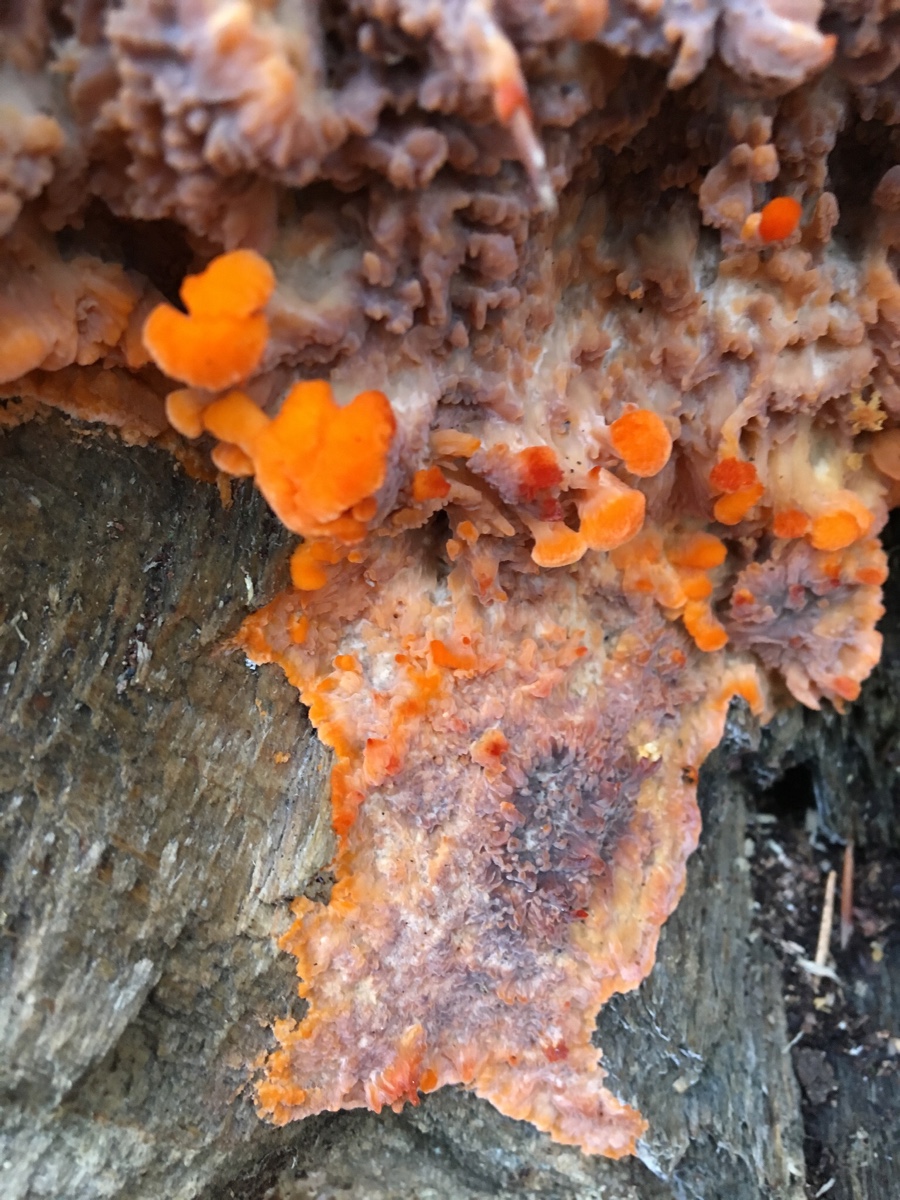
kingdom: Fungi
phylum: Basidiomycota
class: Agaricomycetes
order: Polyporales
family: Meruliaceae
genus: Phlebia
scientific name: Phlebia radiata
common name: stråle-åresvamp
